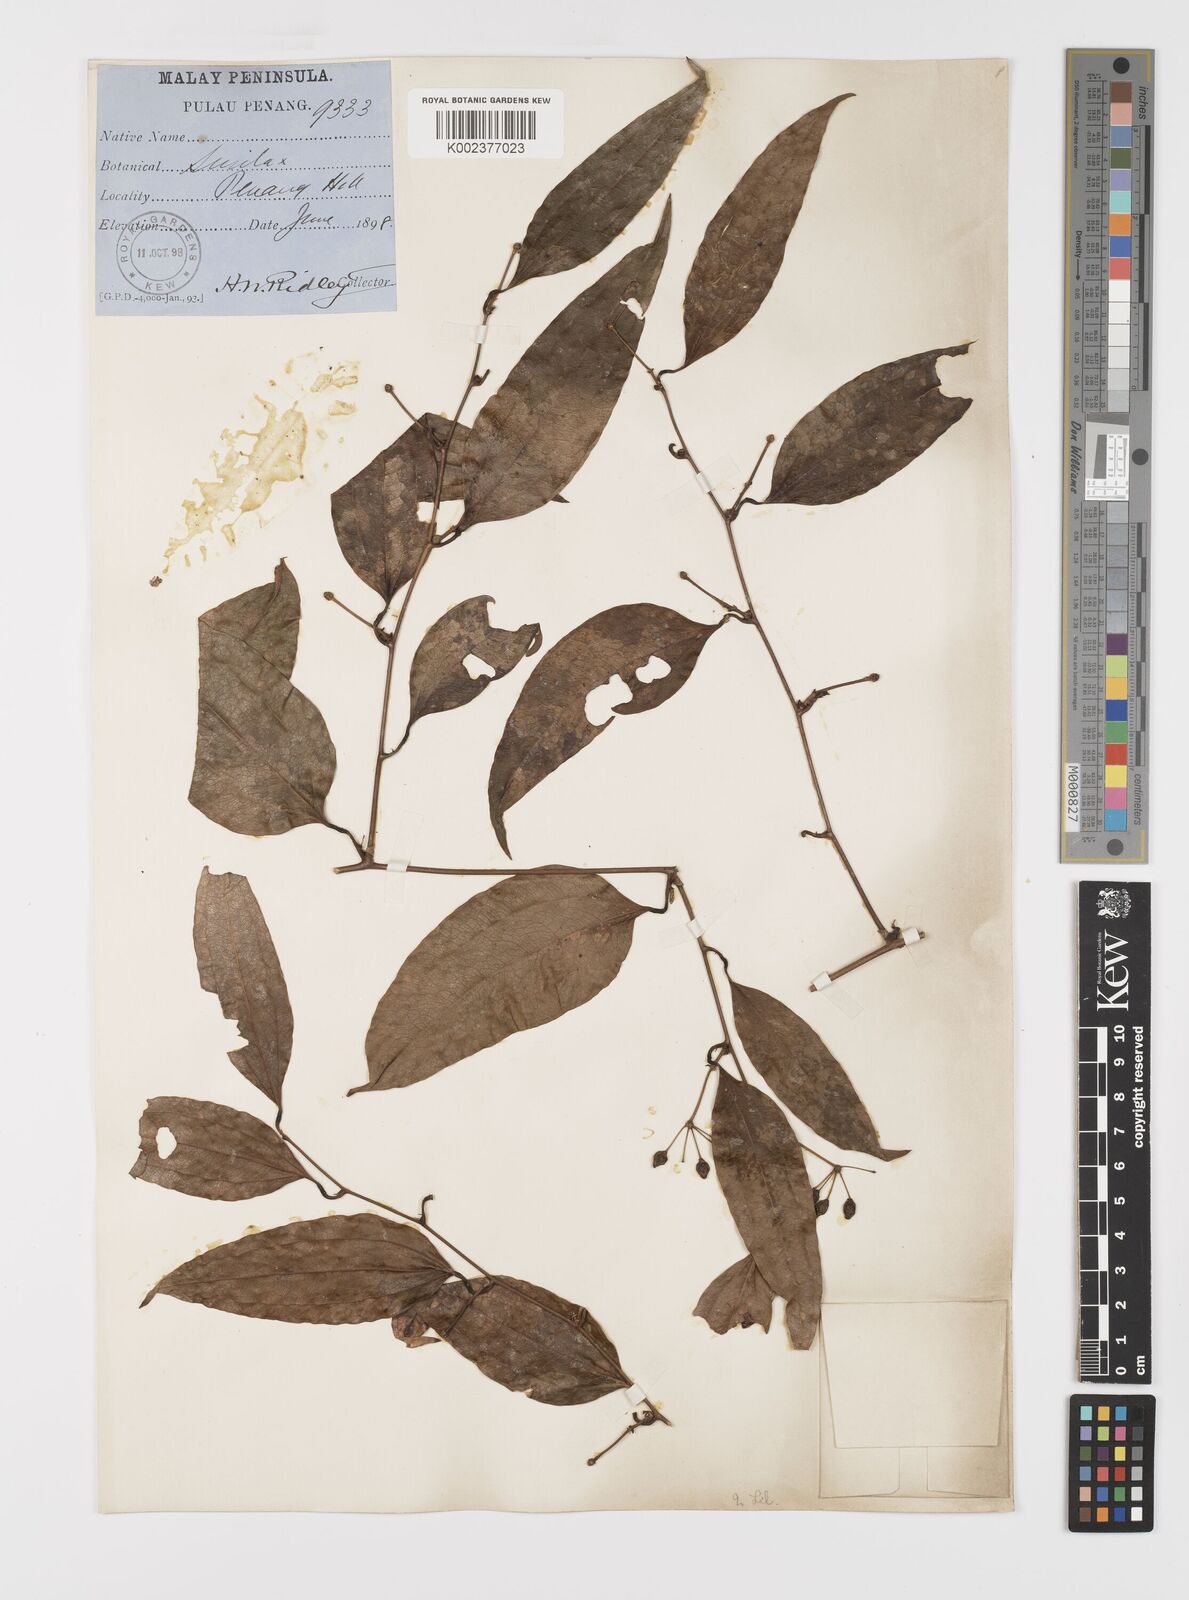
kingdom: Plantae
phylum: Tracheophyta
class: Liliopsida
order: Liliales
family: Smilacaceae
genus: Smilax
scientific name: Smilax laevis
